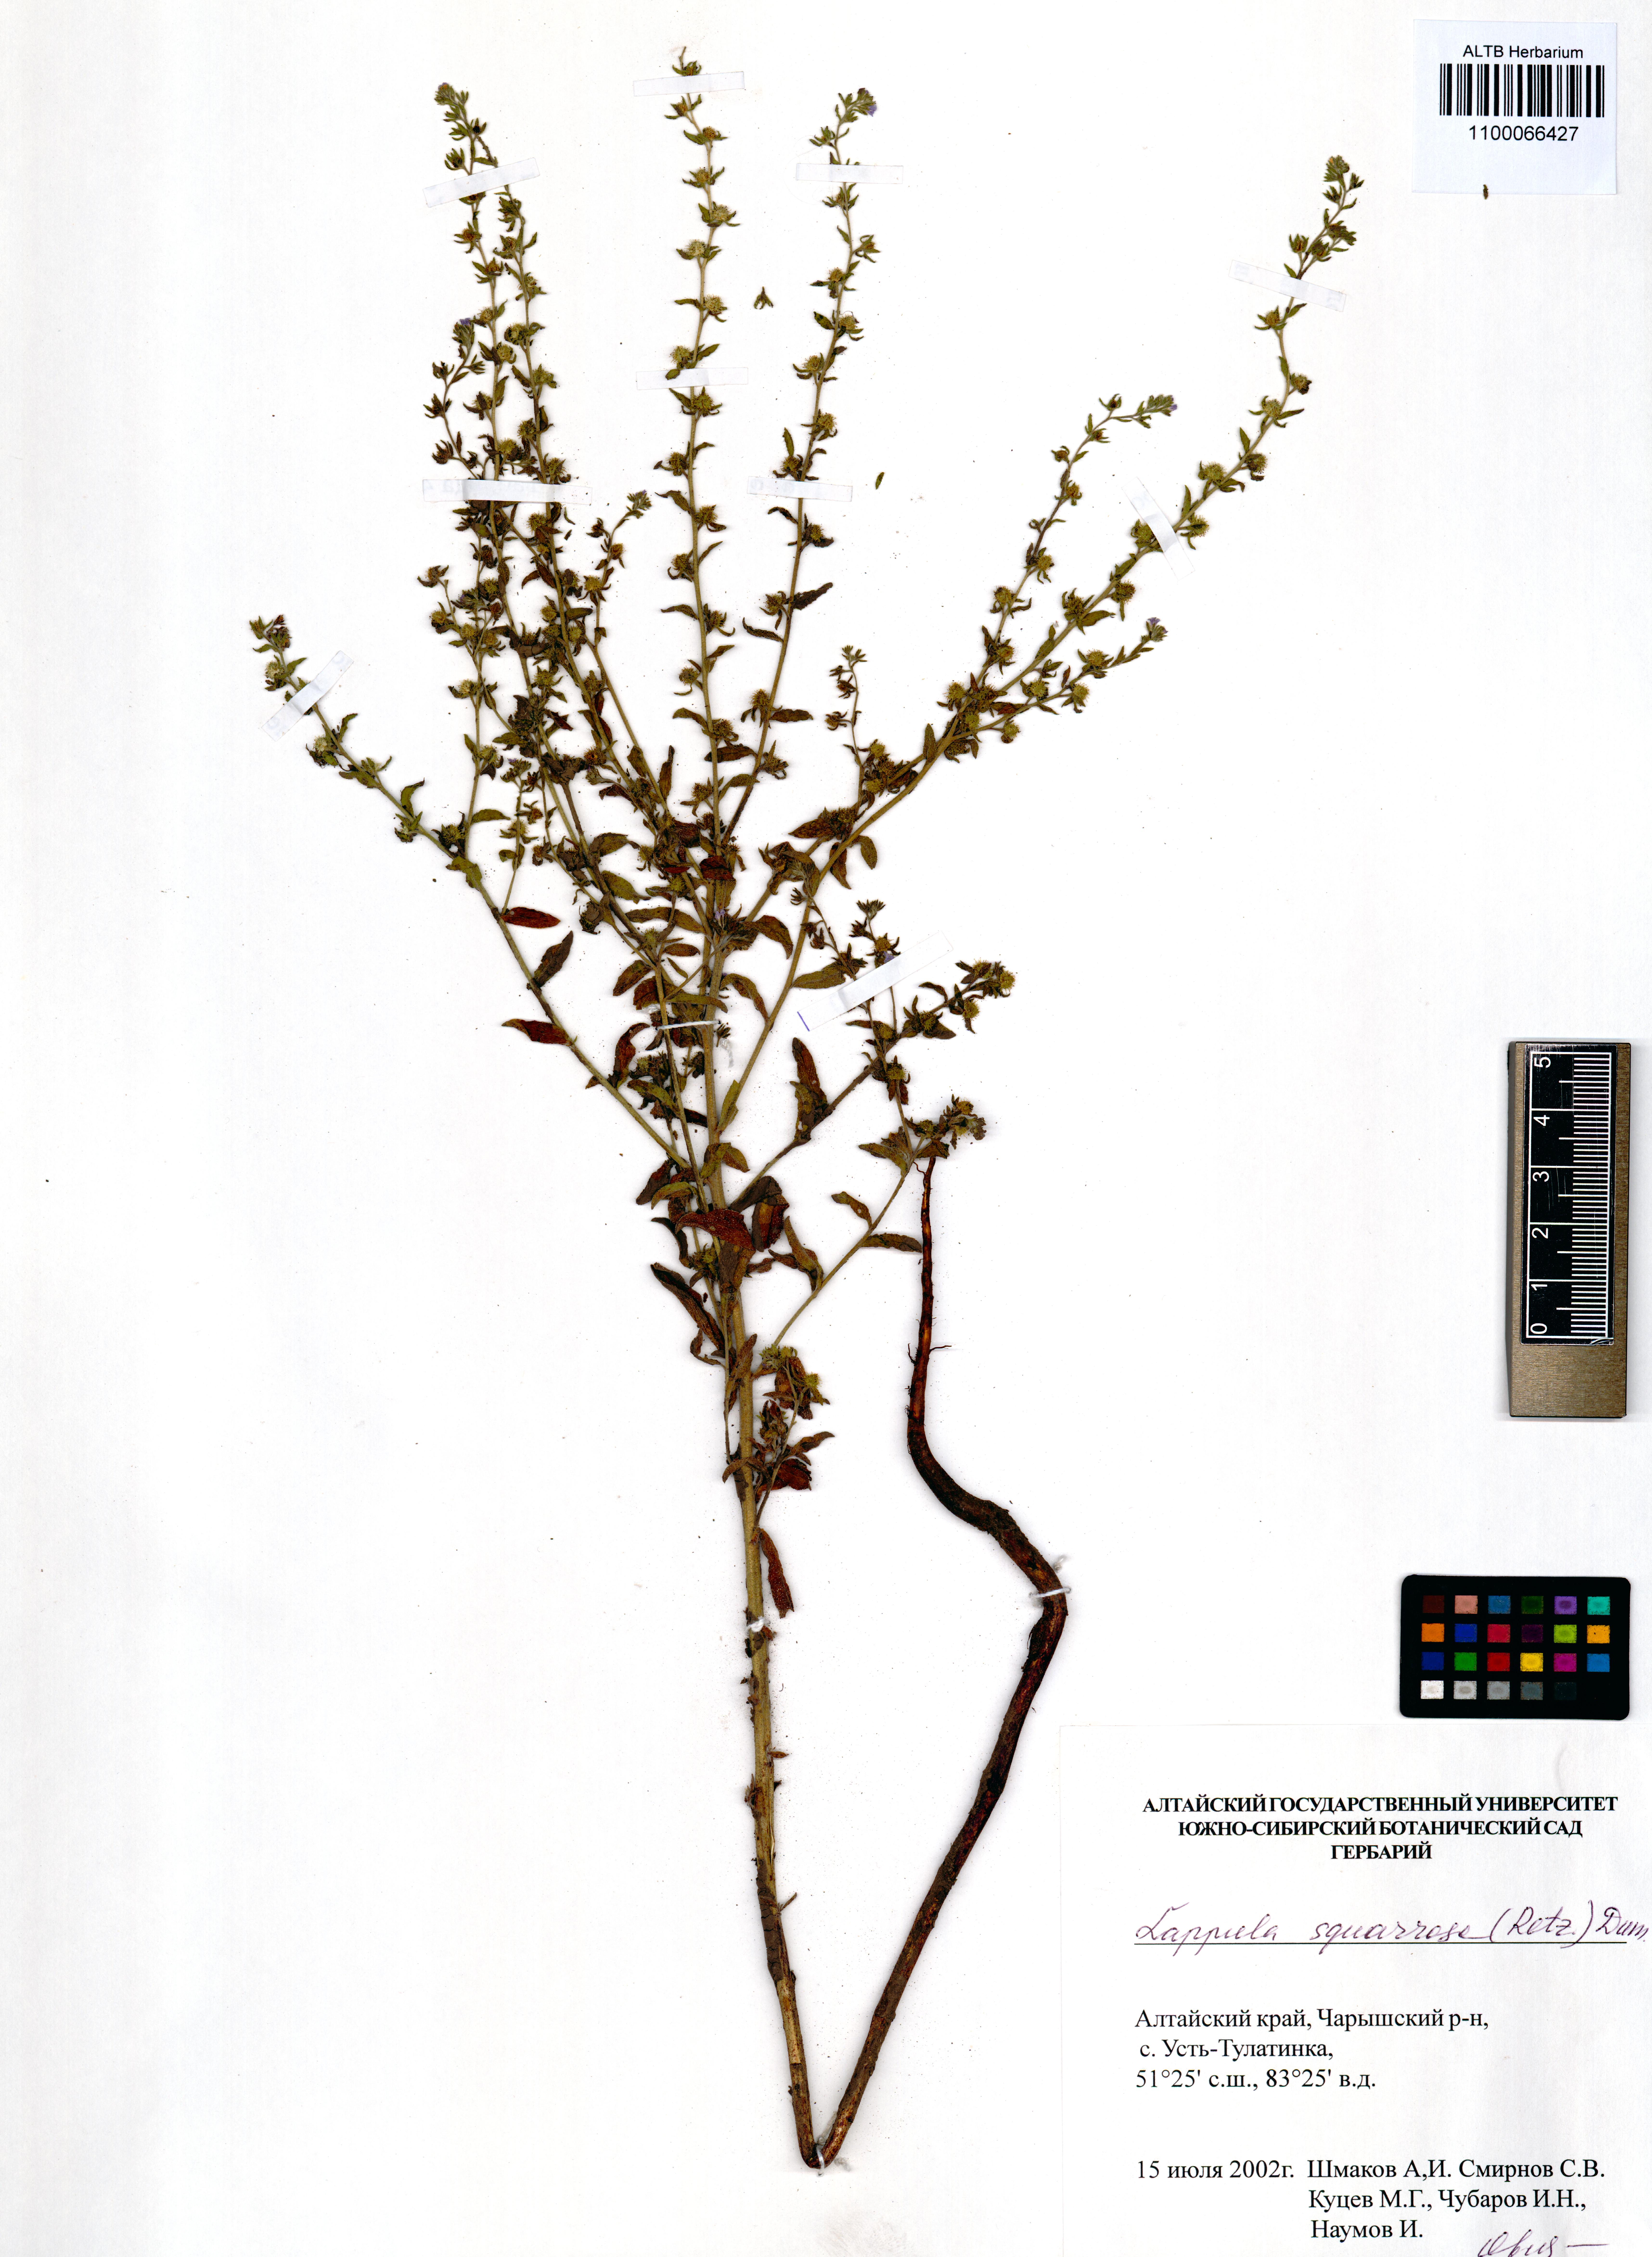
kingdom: Plantae
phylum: Tracheophyta
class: Magnoliopsida
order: Boraginales
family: Boraginaceae
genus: Lappula
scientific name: Lappula squarrosa
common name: European stickseed
